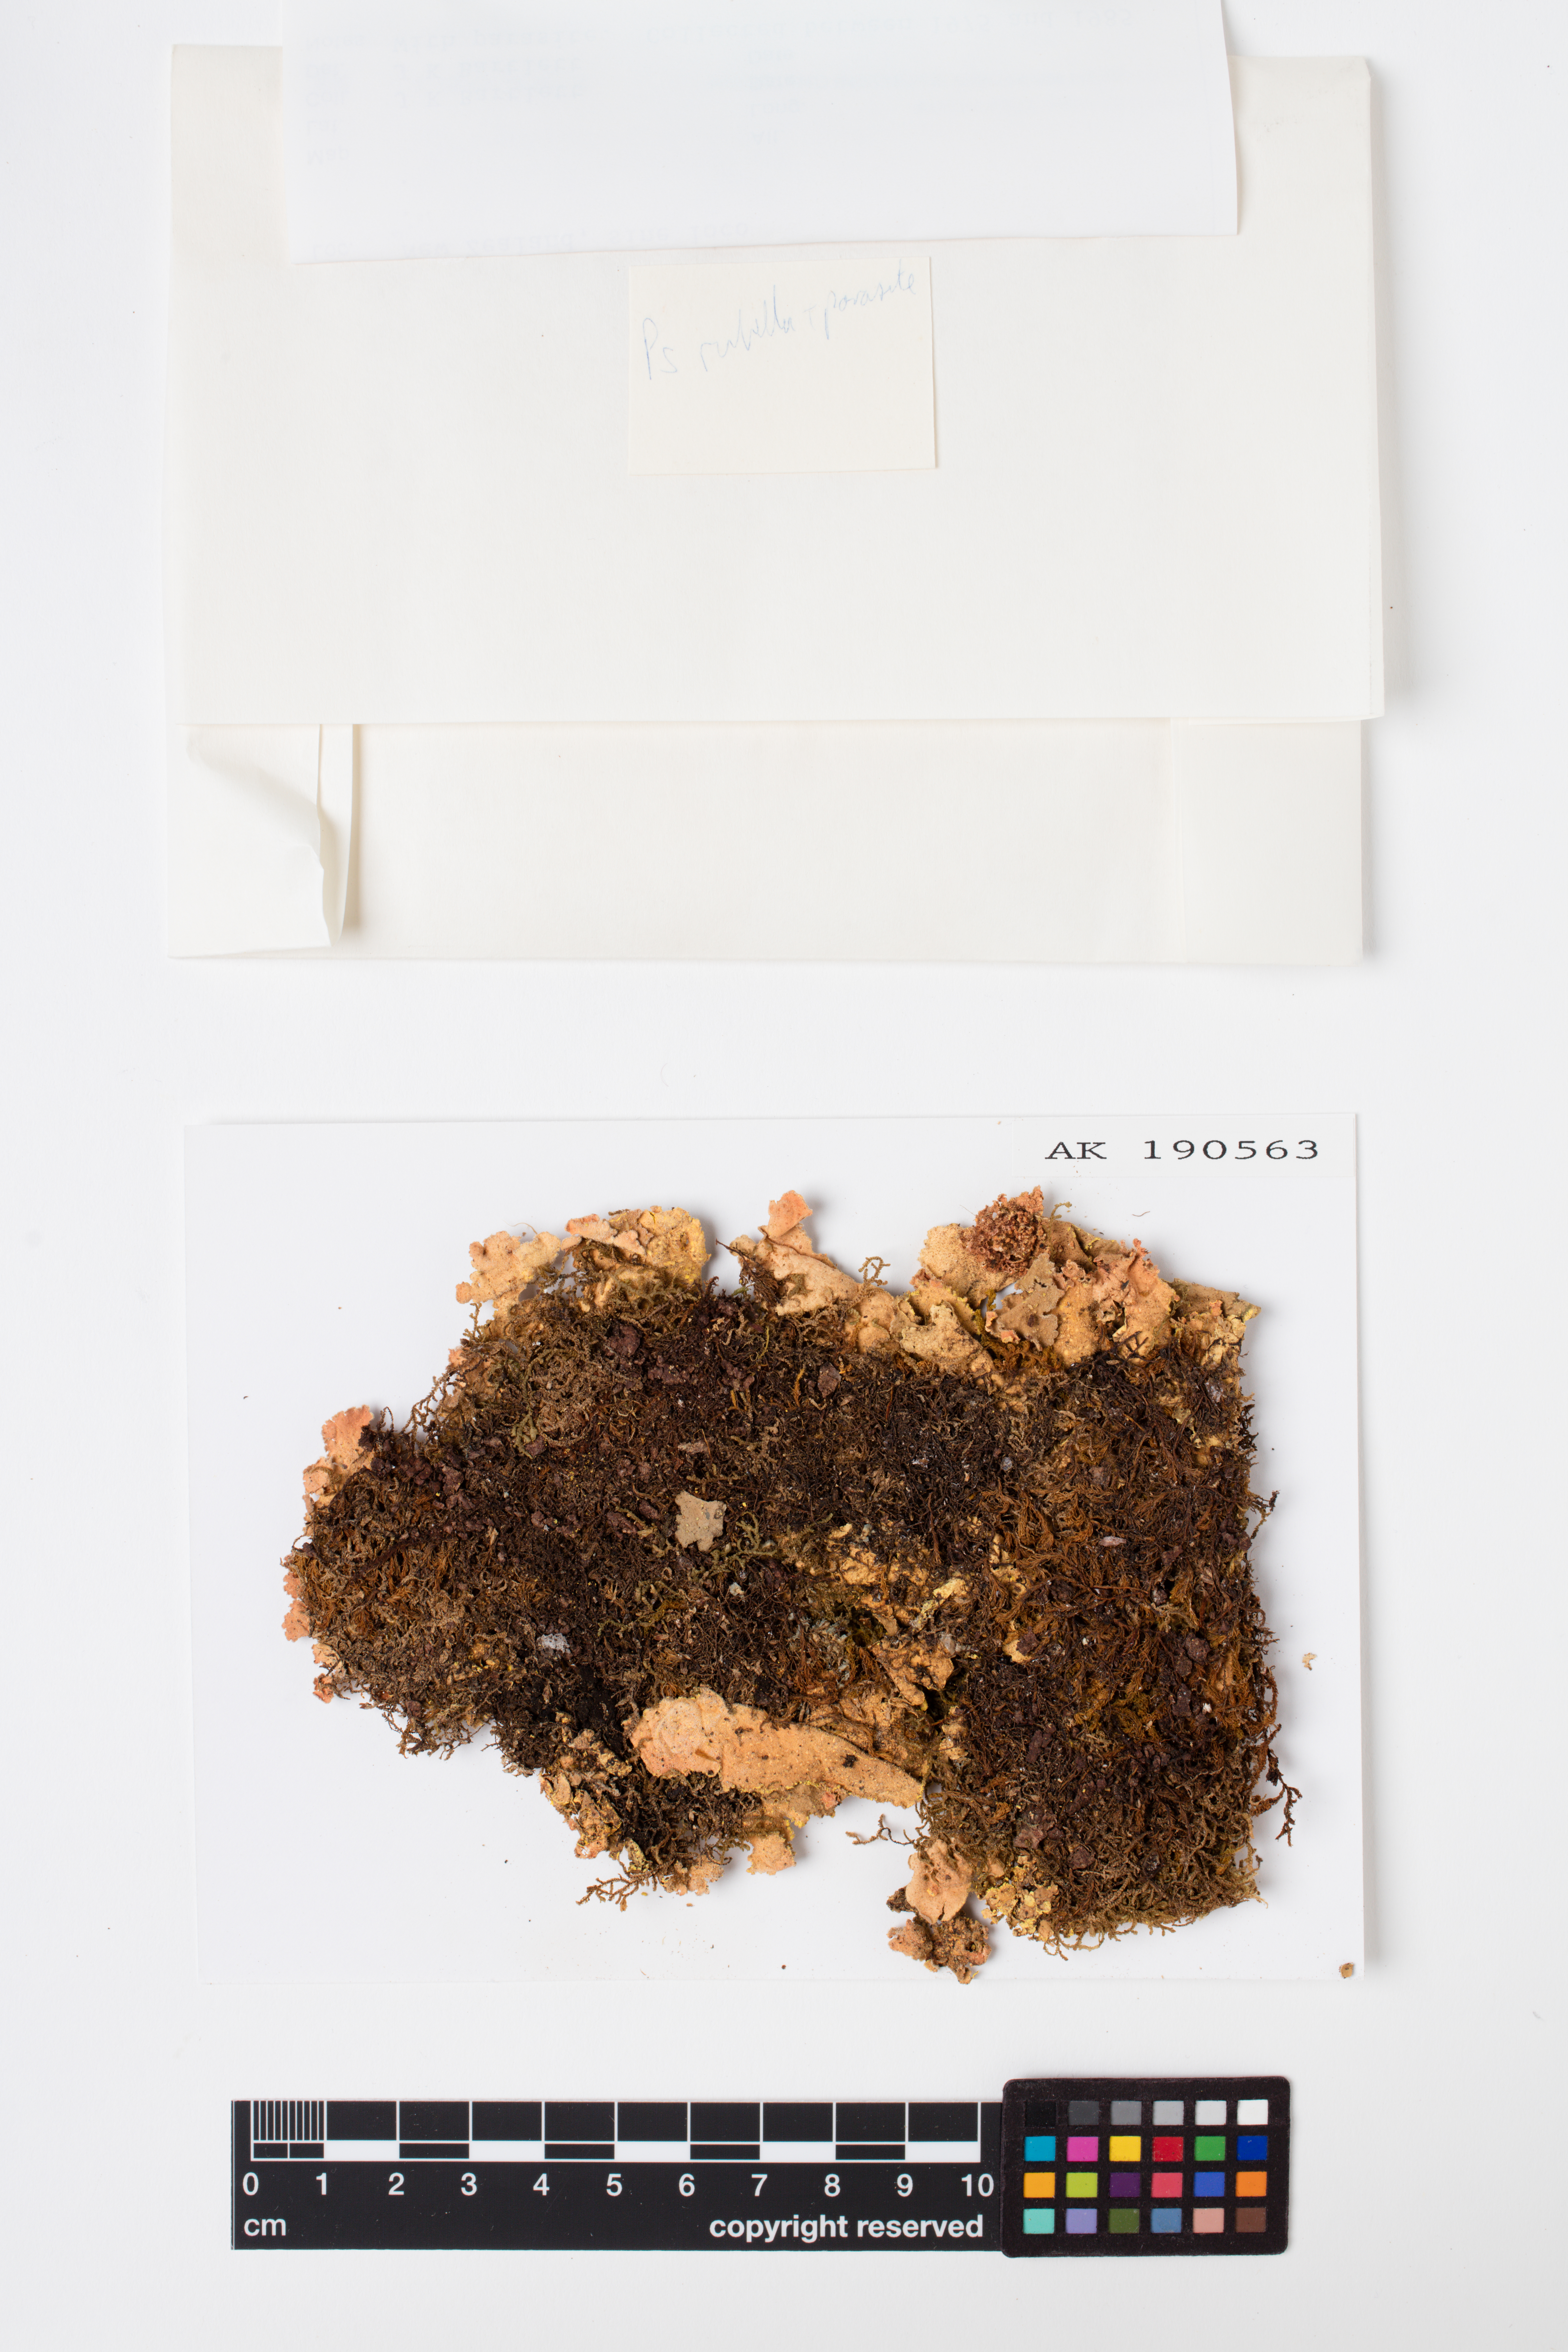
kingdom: Fungi
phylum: Ascomycota
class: Lecanoromycetes
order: Peltigerales
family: Lobariaceae
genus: Pseudocyphellaria
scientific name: Pseudocyphellaria rubella
